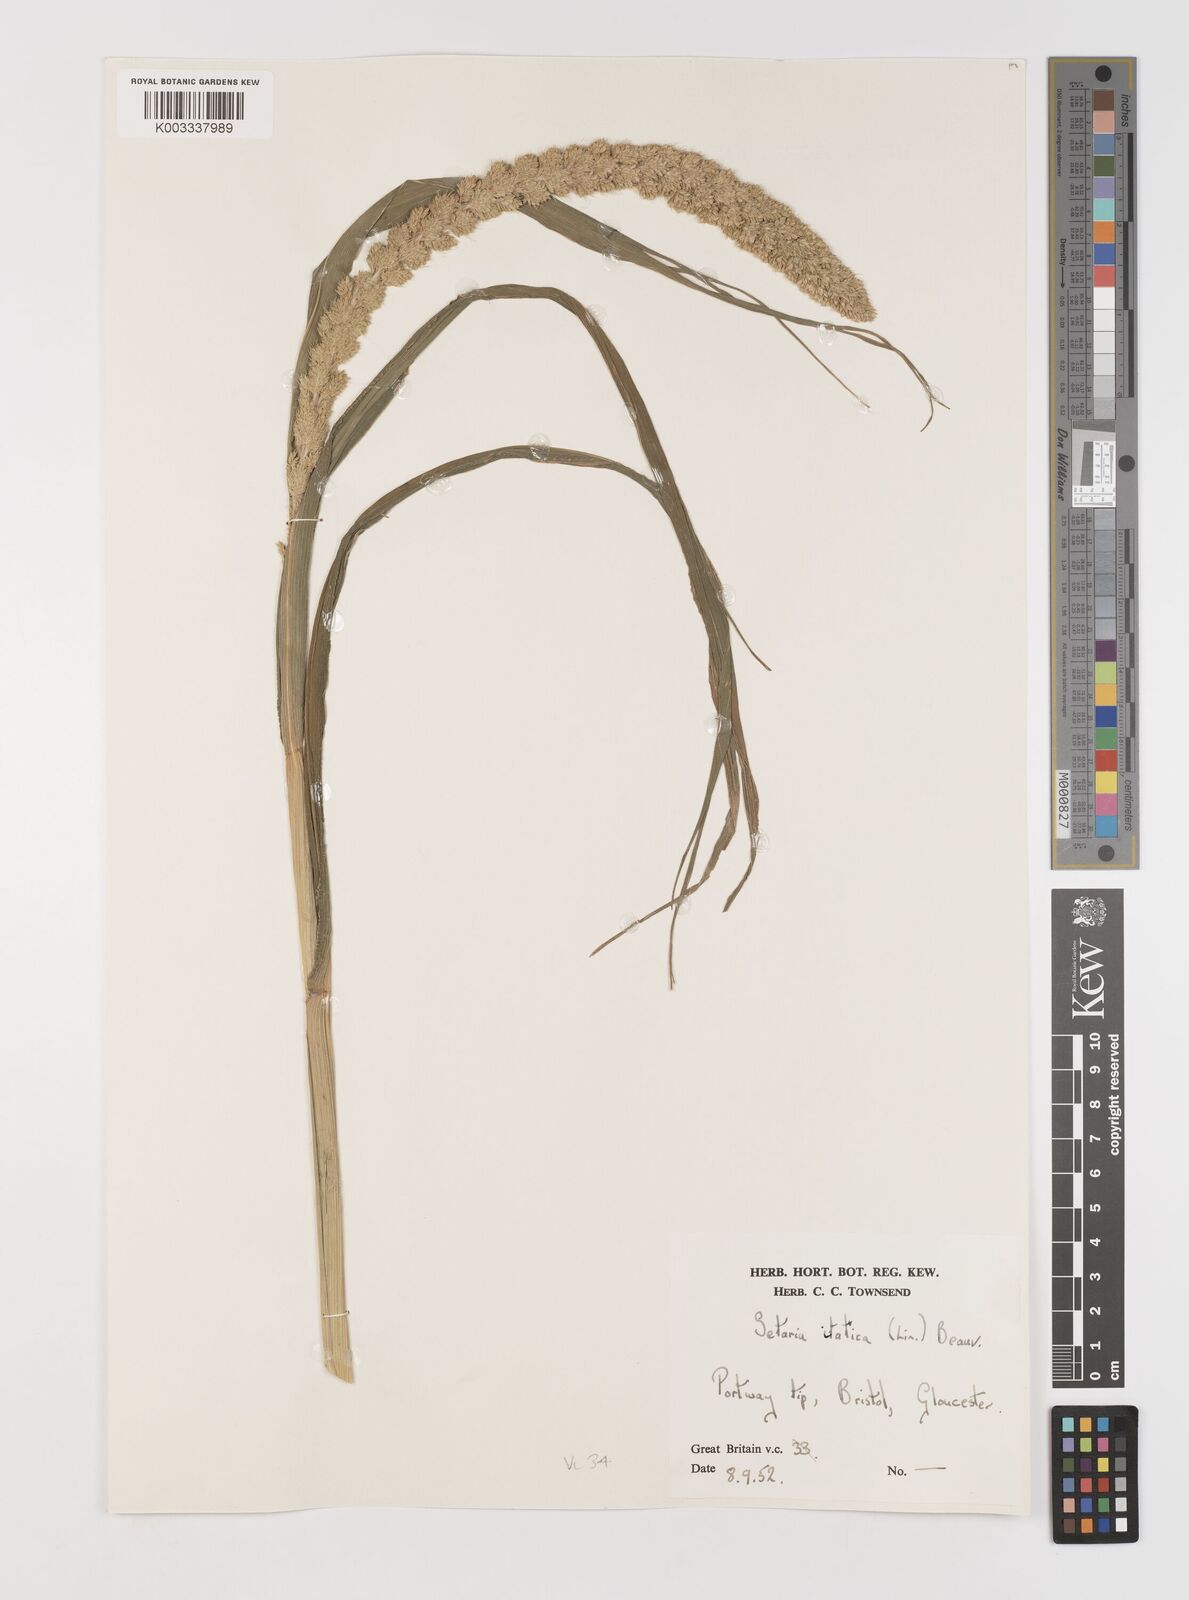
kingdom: Plantae
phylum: Tracheophyta
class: Liliopsida
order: Poales
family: Poaceae
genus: Setaria
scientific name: Setaria italica
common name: Foxtail bristle-grass
